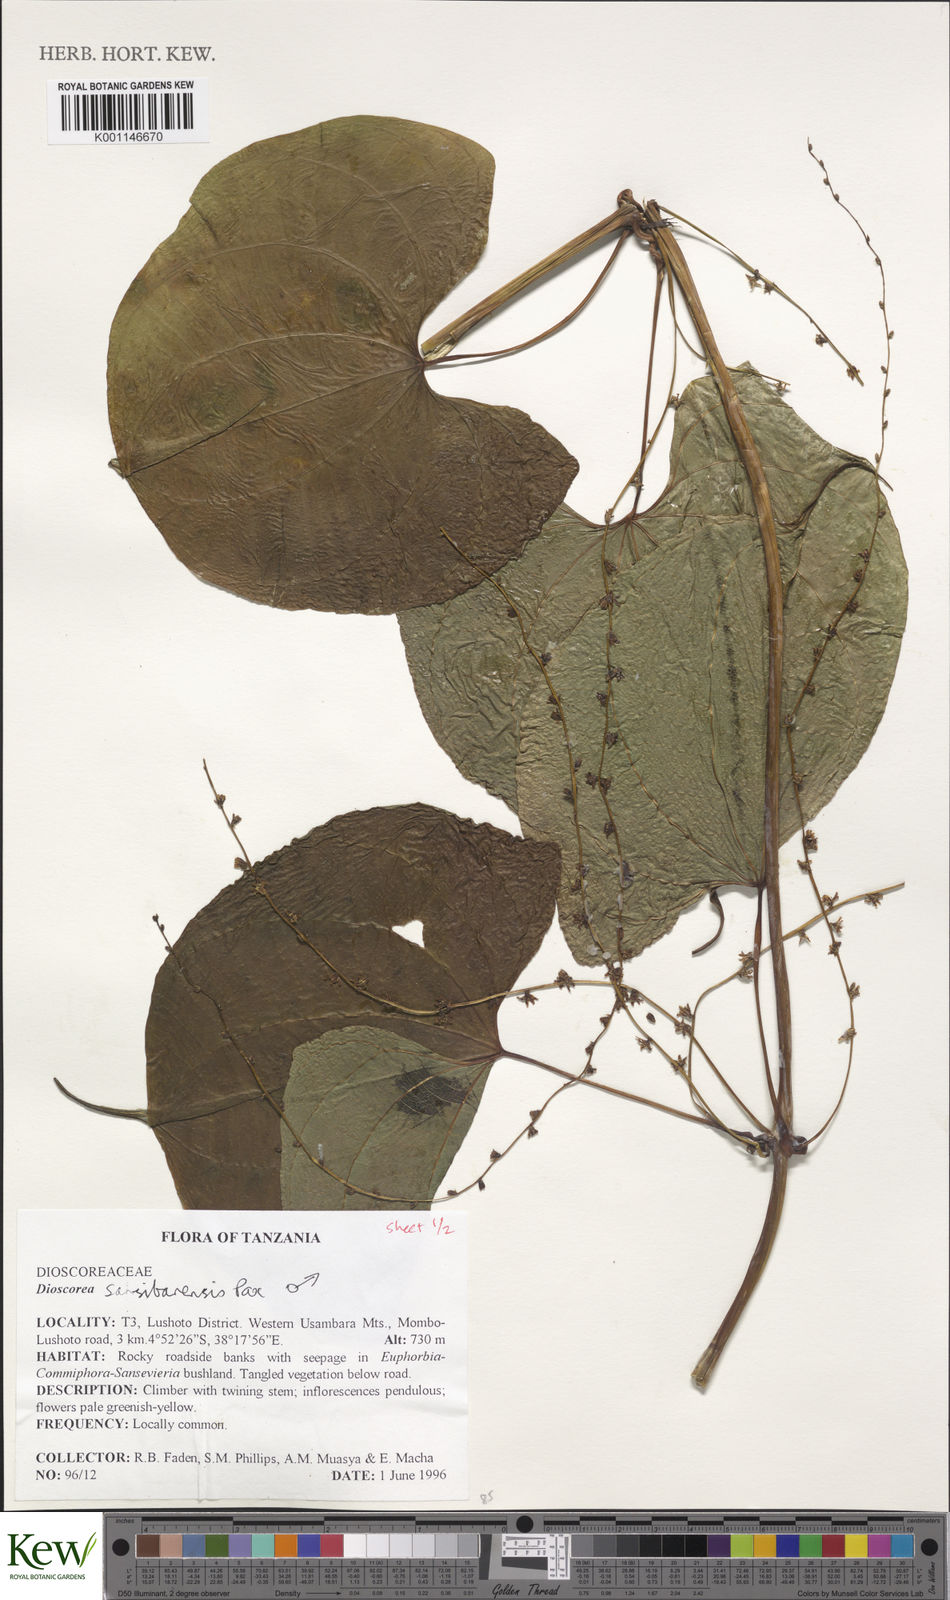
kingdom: Plantae
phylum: Tracheophyta
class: Liliopsida
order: Dioscoreales
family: Dioscoreaceae
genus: Dioscorea
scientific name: Dioscorea sansibarensis
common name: Zanzibar yam
